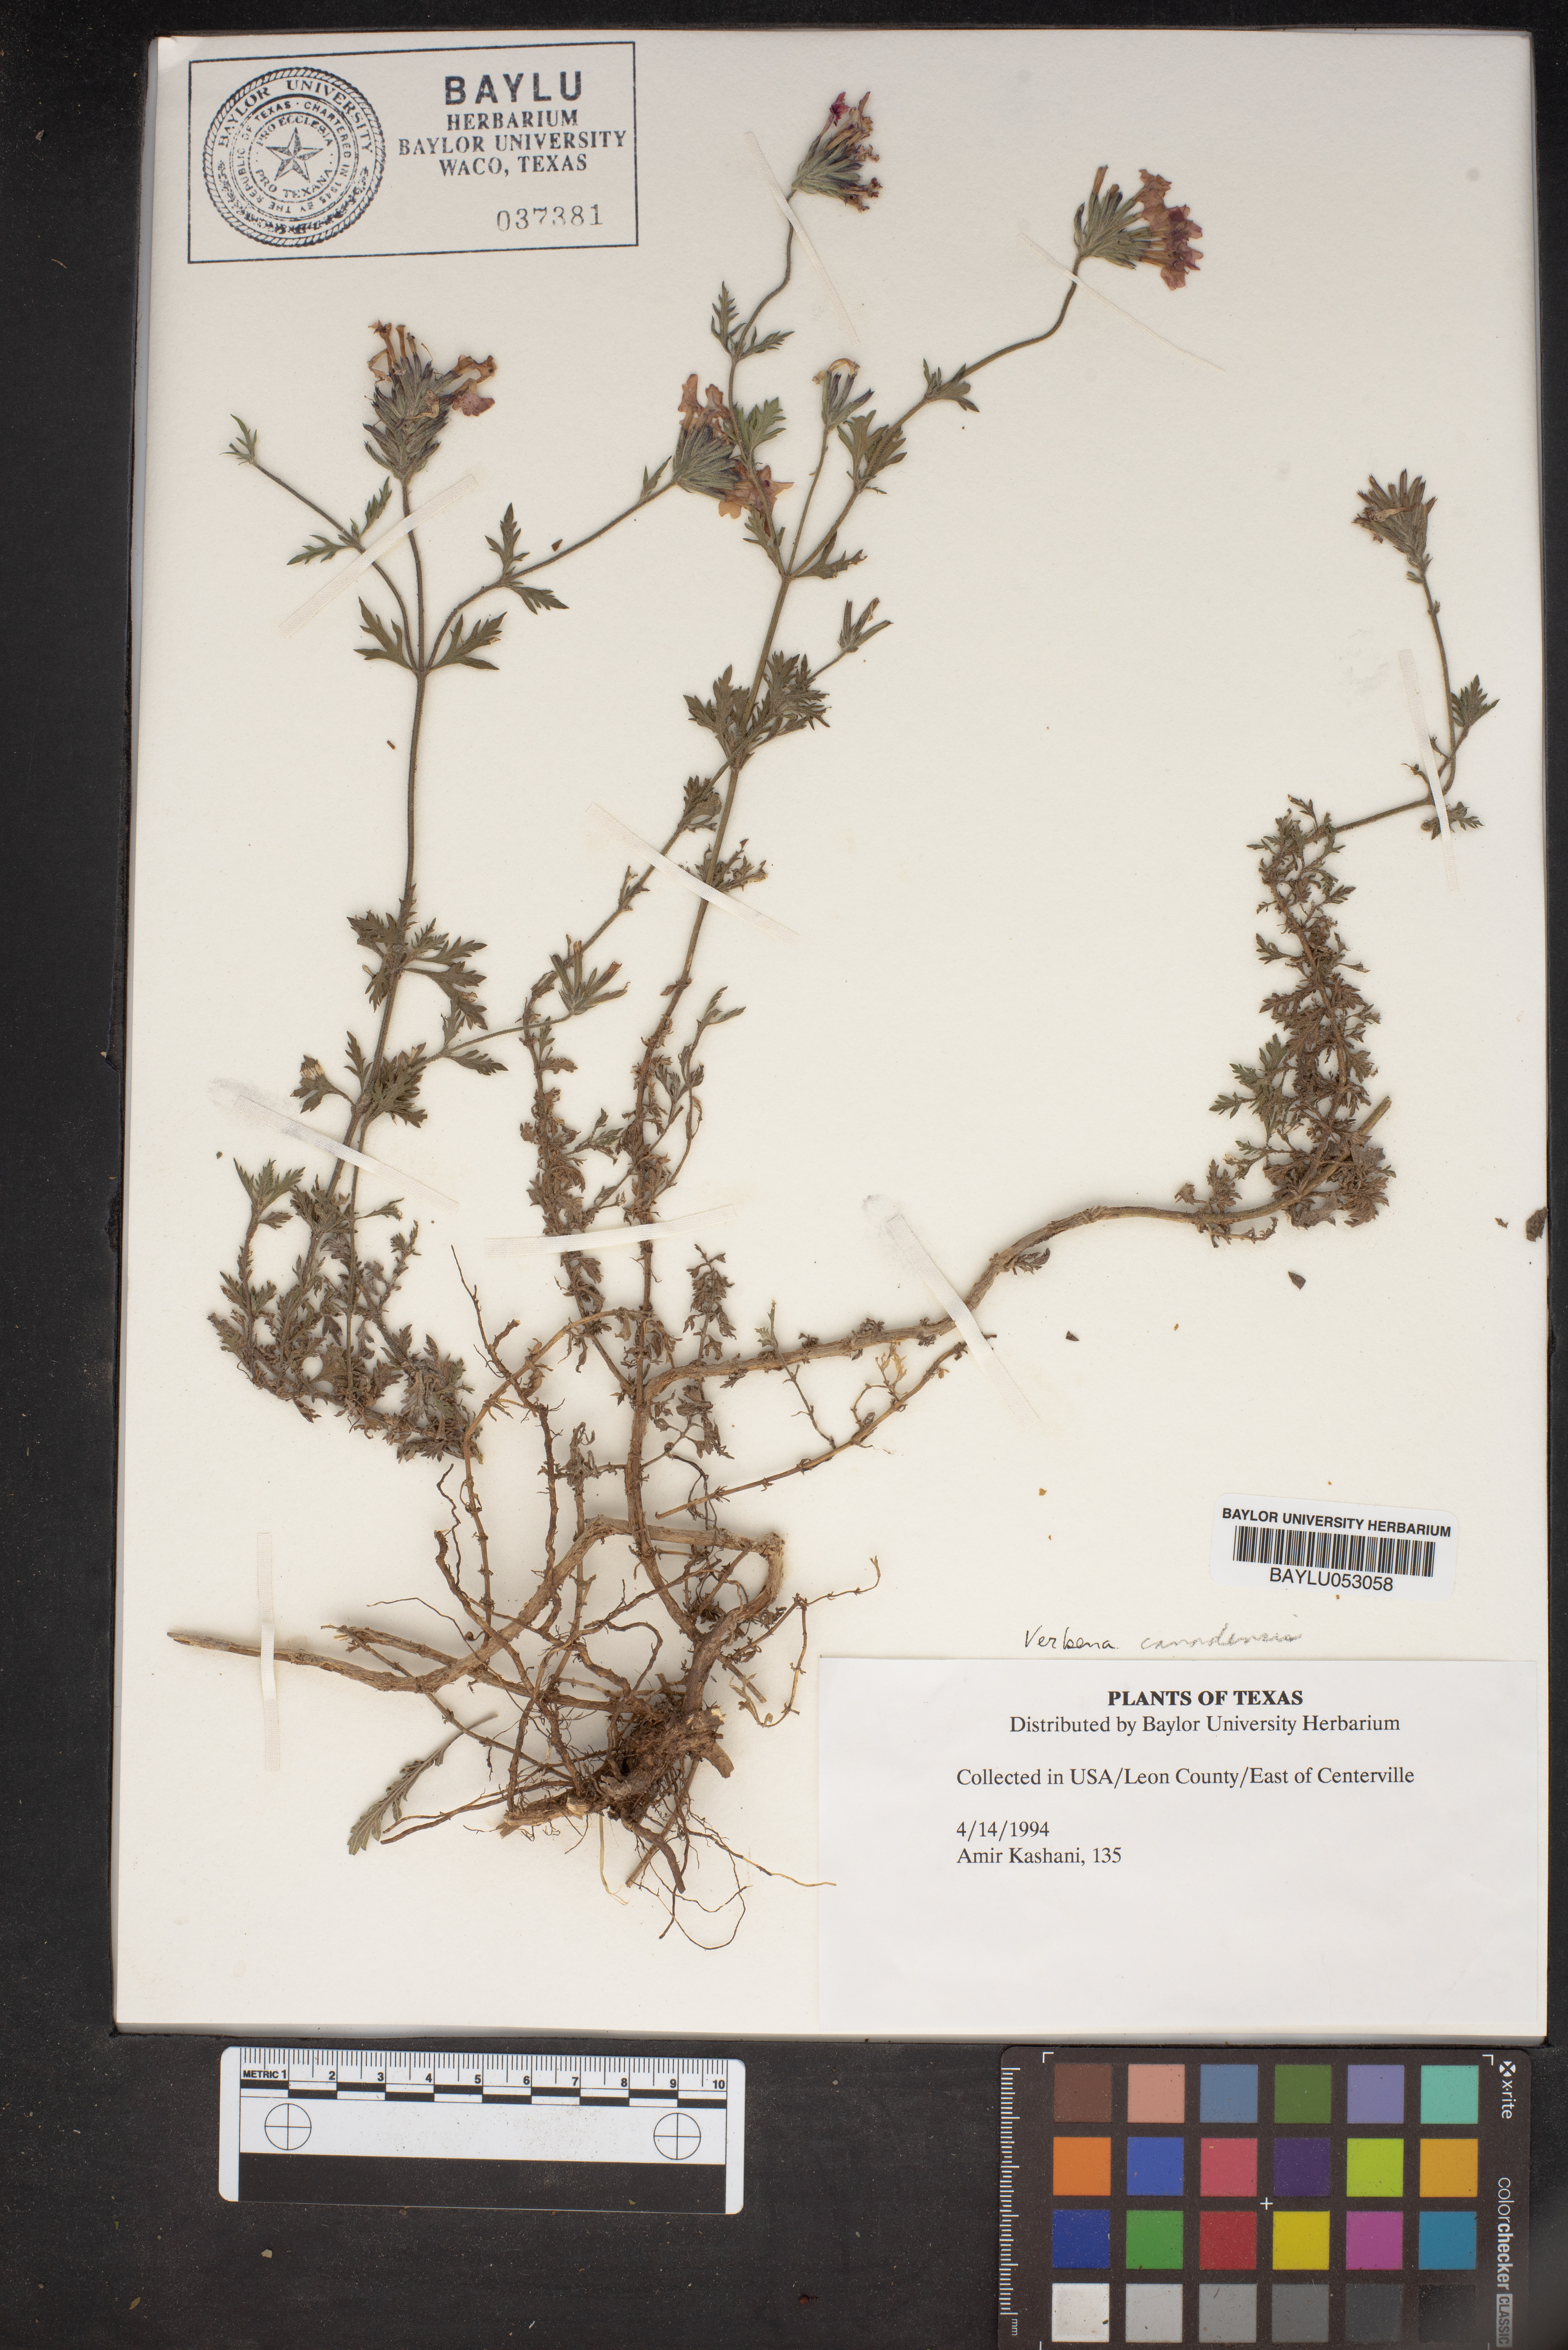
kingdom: Plantae
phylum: Tracheophyta
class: Magnoliopsida
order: Lamiales
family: Verbenaceae
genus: Verbena
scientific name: Verbena canadensis
